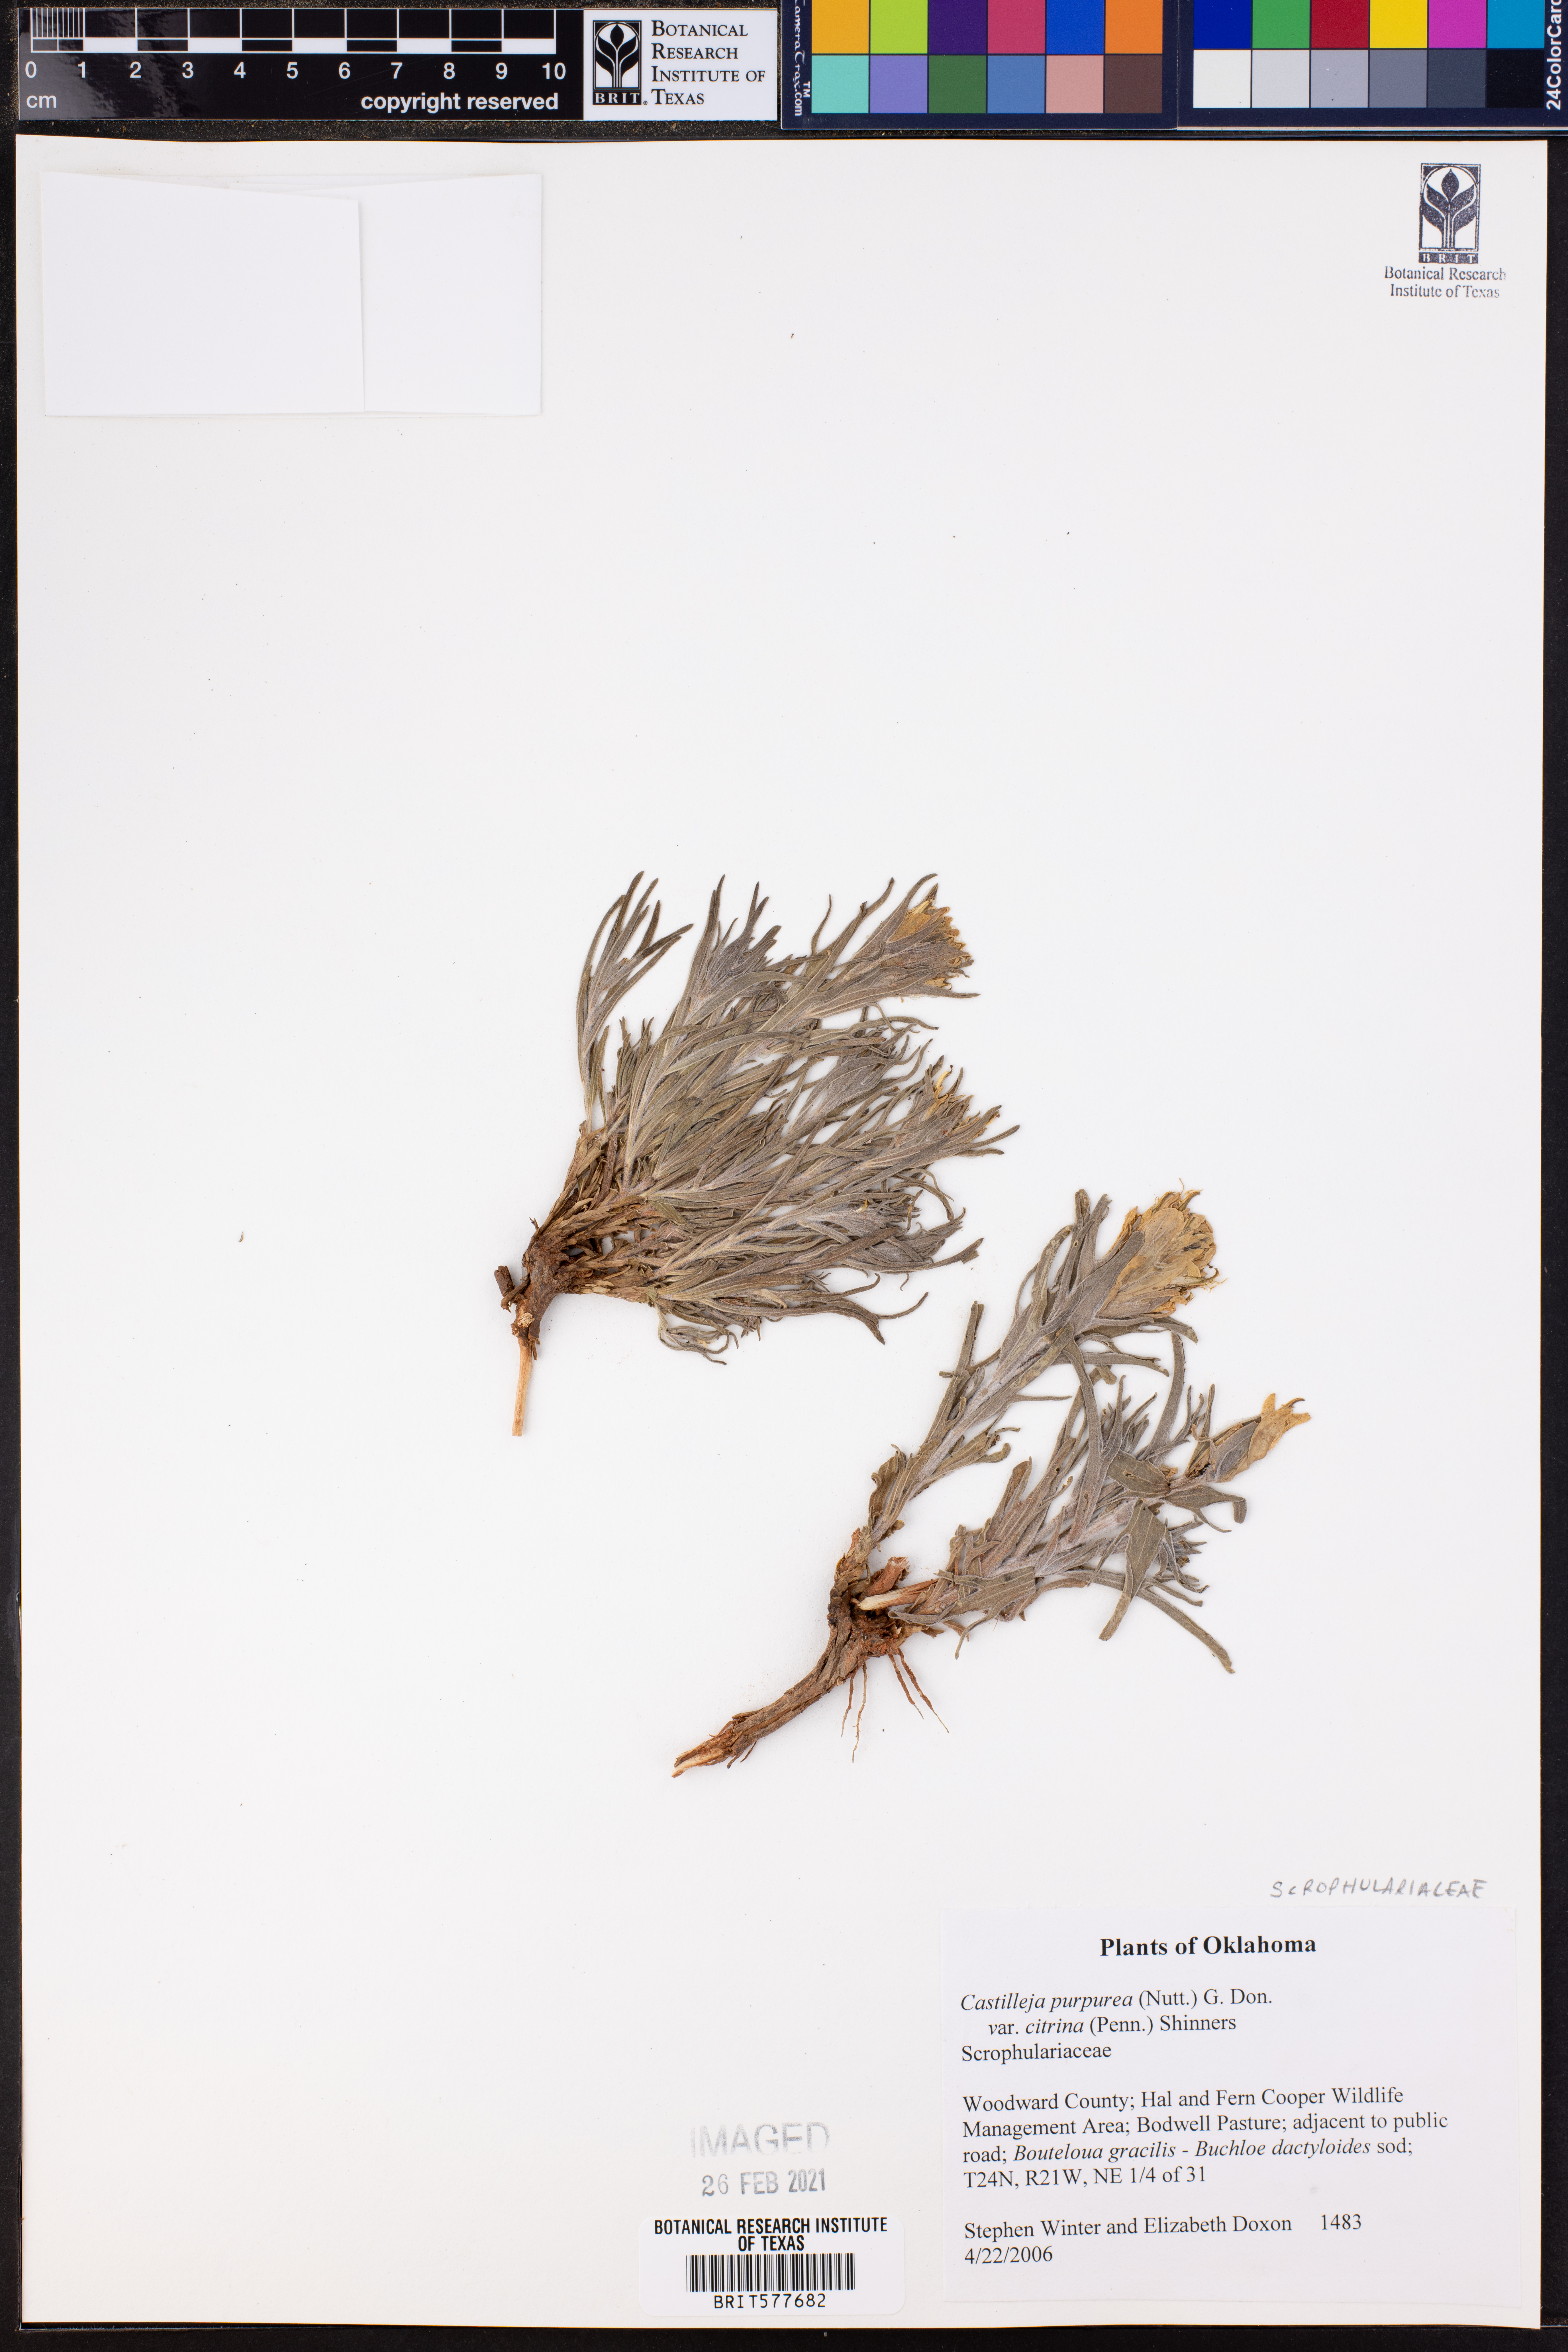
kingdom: Plantae
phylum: Tracheophyta
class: Magnoliopsida
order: Lamiales
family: Orobanchaceae
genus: Castilleja
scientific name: Castilleja citrina
